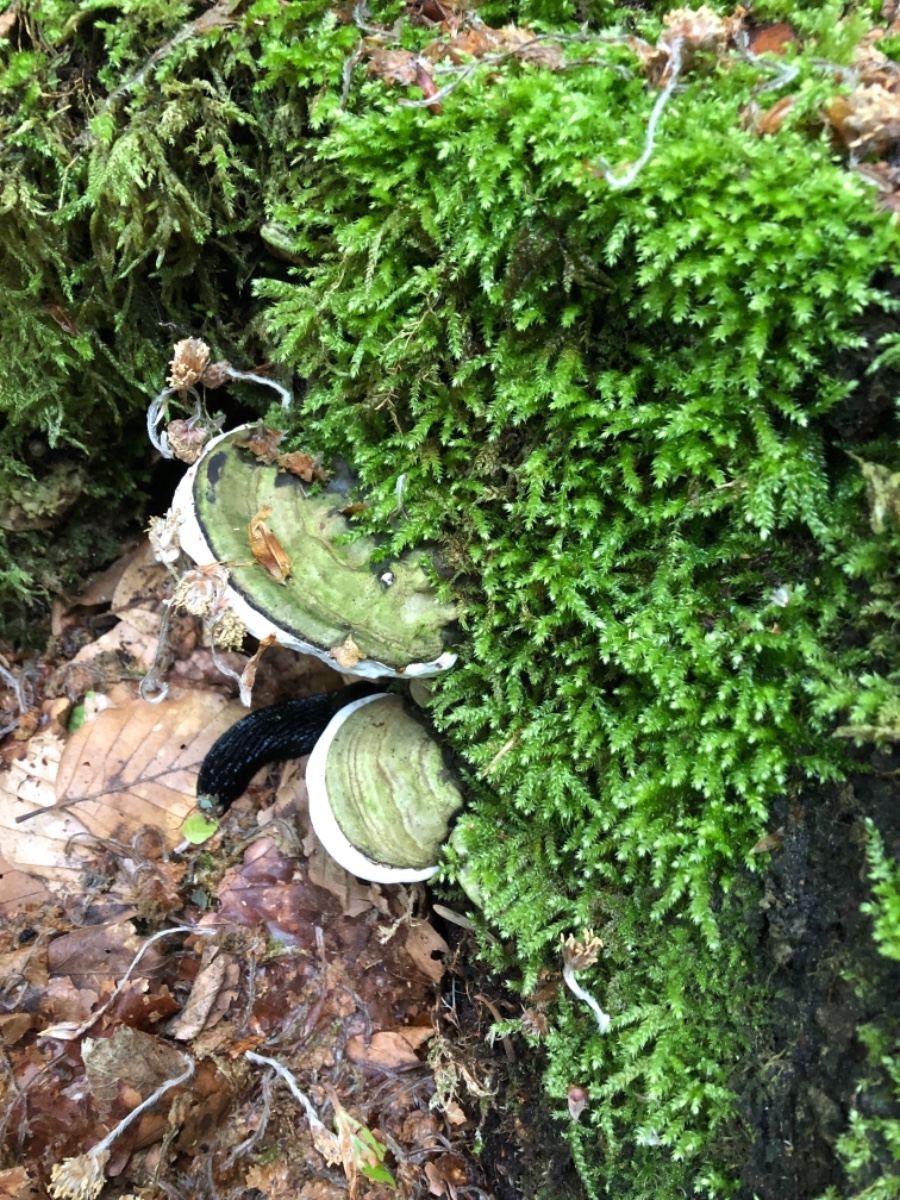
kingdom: Fungi
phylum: Basidiomycota
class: Agaricomycetes
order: Polyporales
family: Polyporaceae
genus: Ganoderma
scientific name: Ganoderma applanatum
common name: flad lakporesvamp
